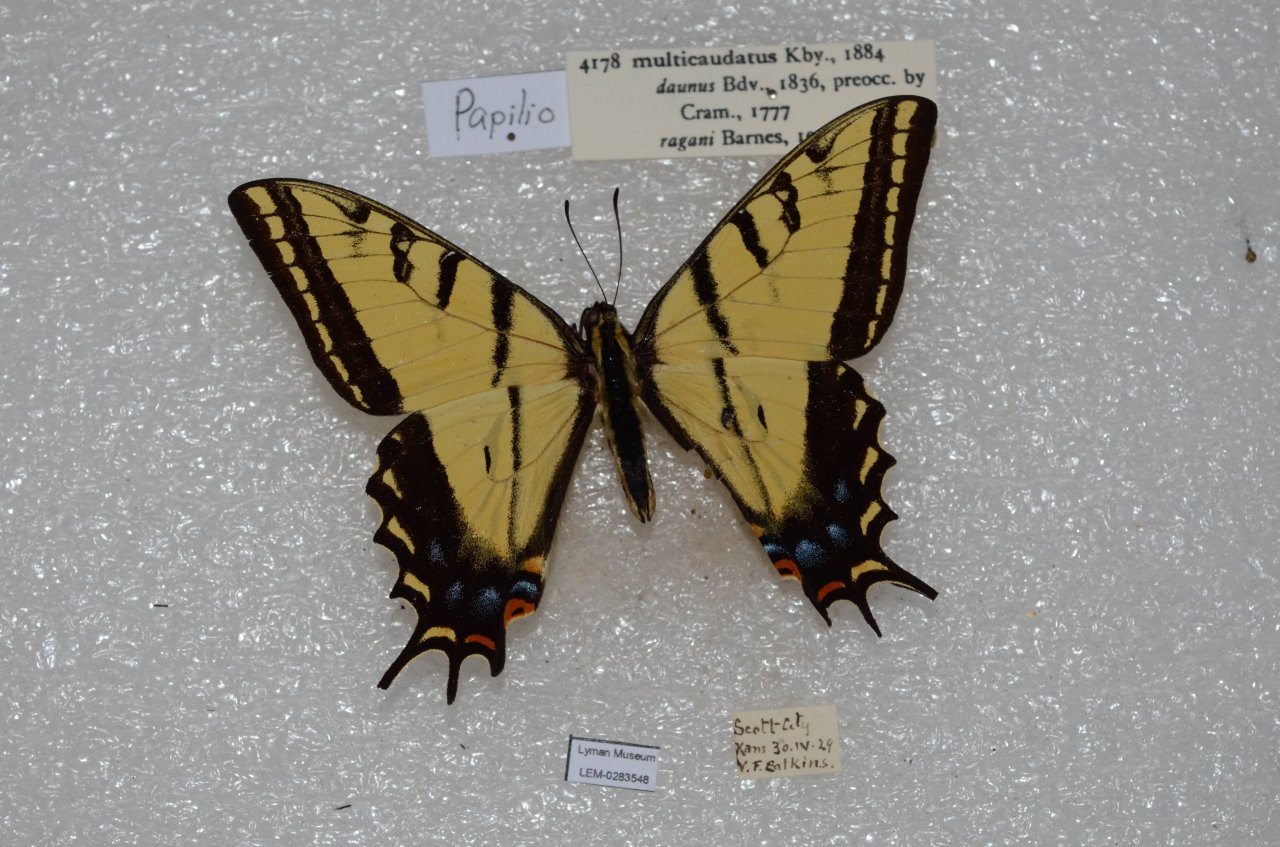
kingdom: Animalia
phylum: Arthropoda
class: Insecta
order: Lepidoptera
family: Papilionidae
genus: Papilio
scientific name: Papilio multicaudata
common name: Two-tailed Swallowtail
